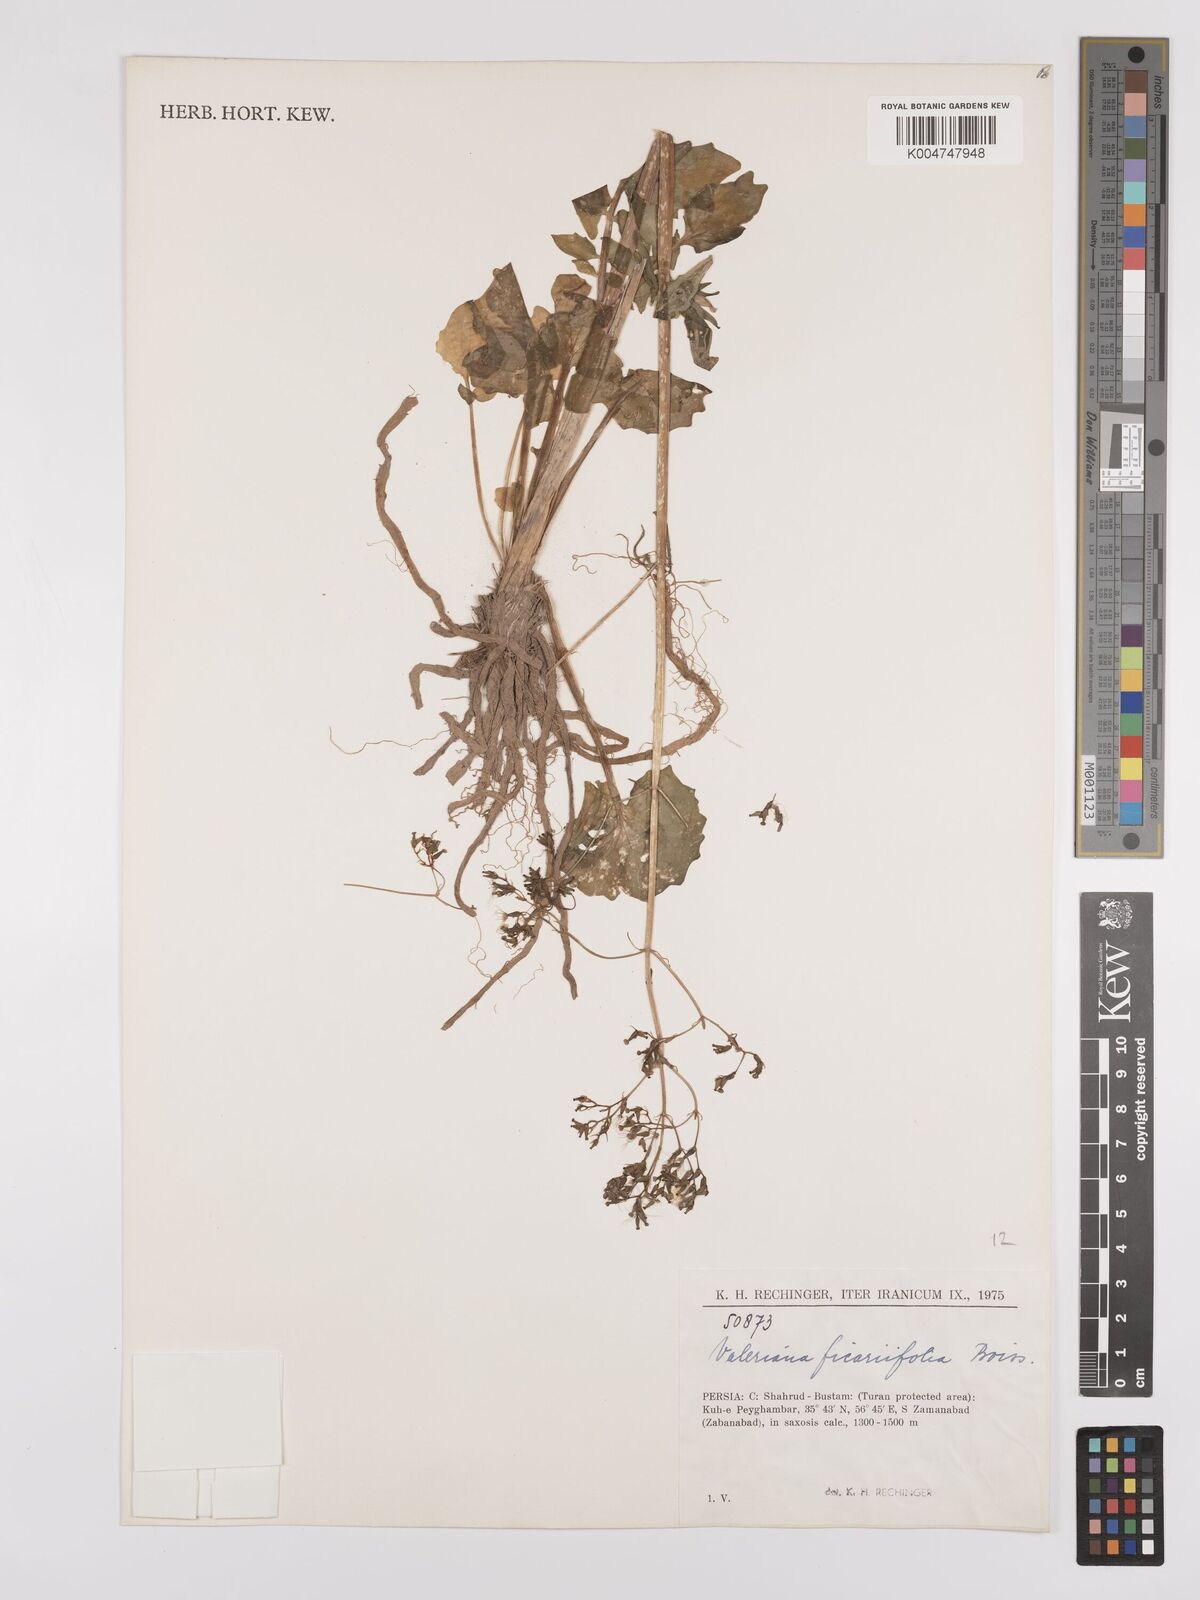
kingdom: Plantae
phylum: Tracheophyta
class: Magnoliopsida
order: Dipsacales
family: Caprifoliaceae
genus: Valeriana
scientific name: Valeriana ficariifolia
